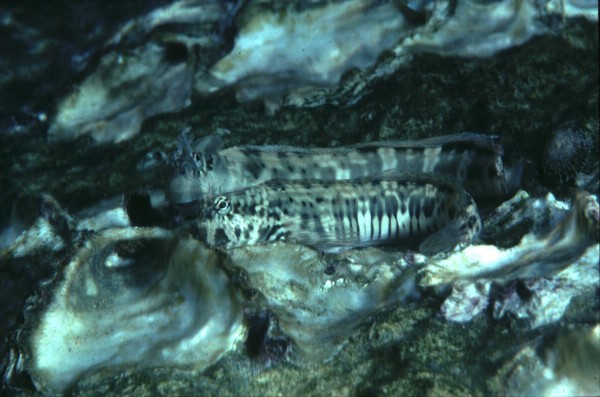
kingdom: Animalia
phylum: Chordata
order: Perciformes
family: Blenniidae
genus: Istiblennius
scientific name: Istiblennius edentulus
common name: Rippled rockskipper
